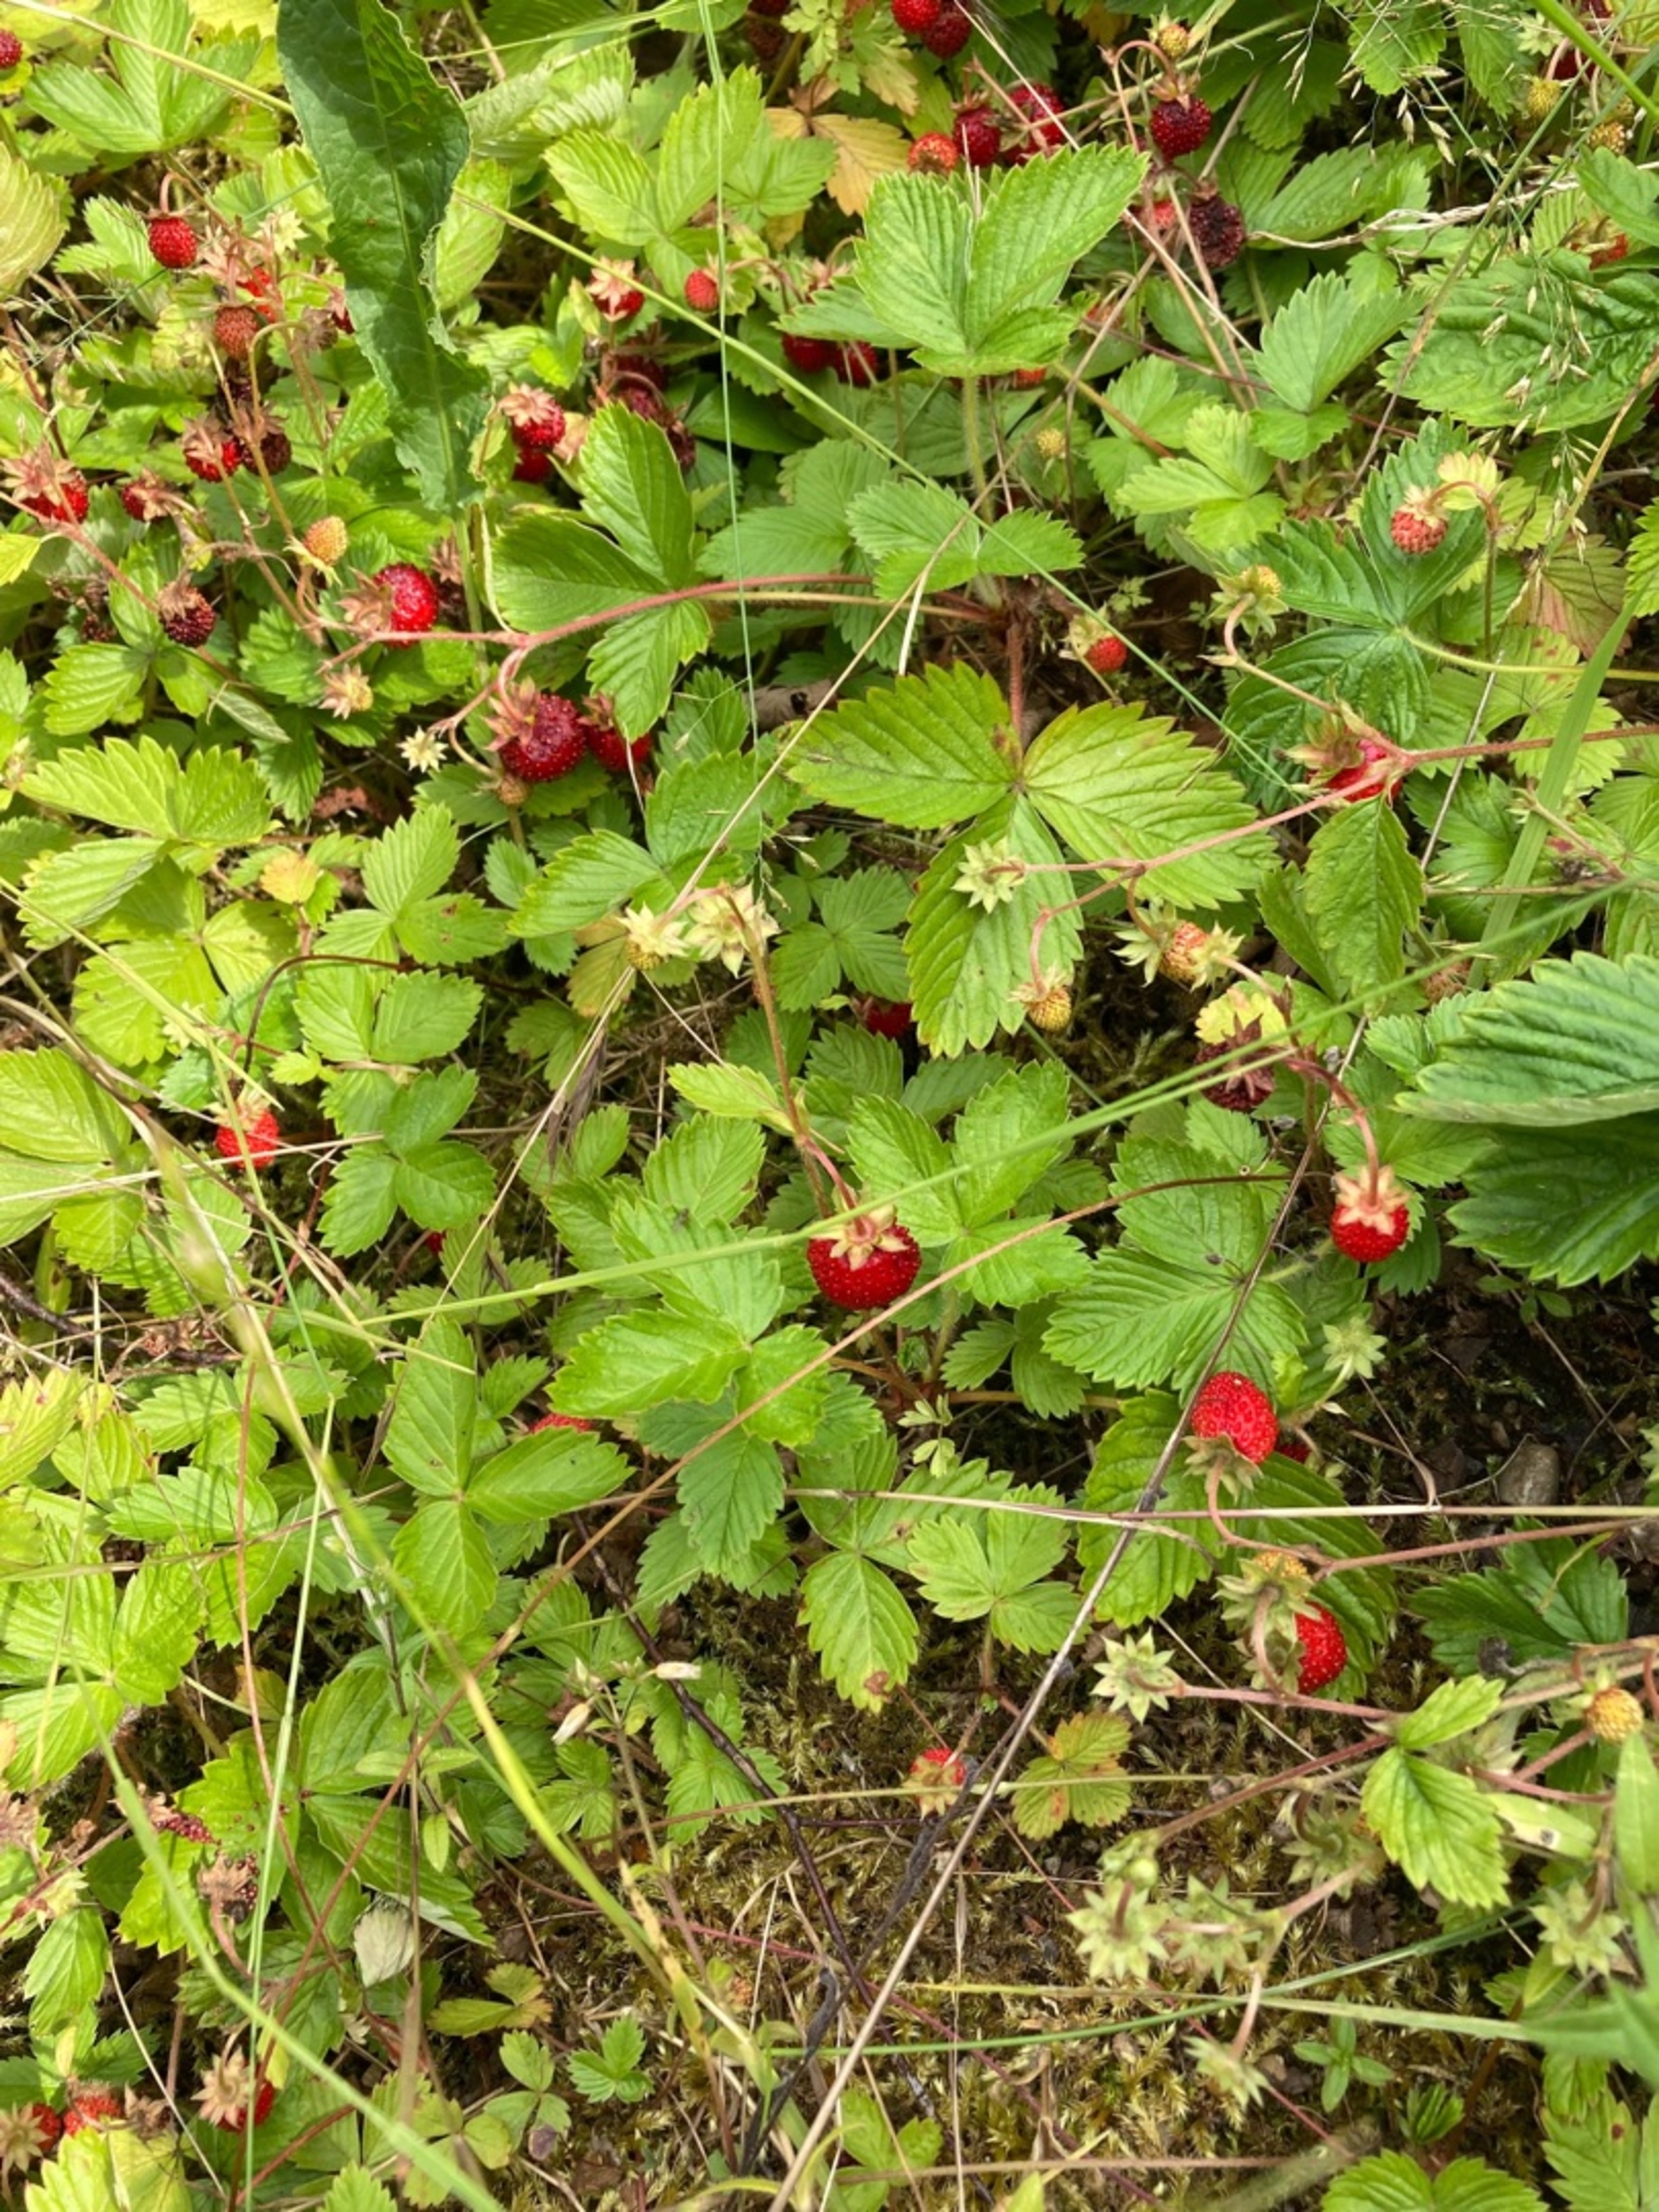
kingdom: Plantae
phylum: Tracheophyta
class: Magnoliopsida
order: Rosales
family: Rosaceae
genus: Fragaria
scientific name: Fragaria vesca
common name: Skov-jordbær
